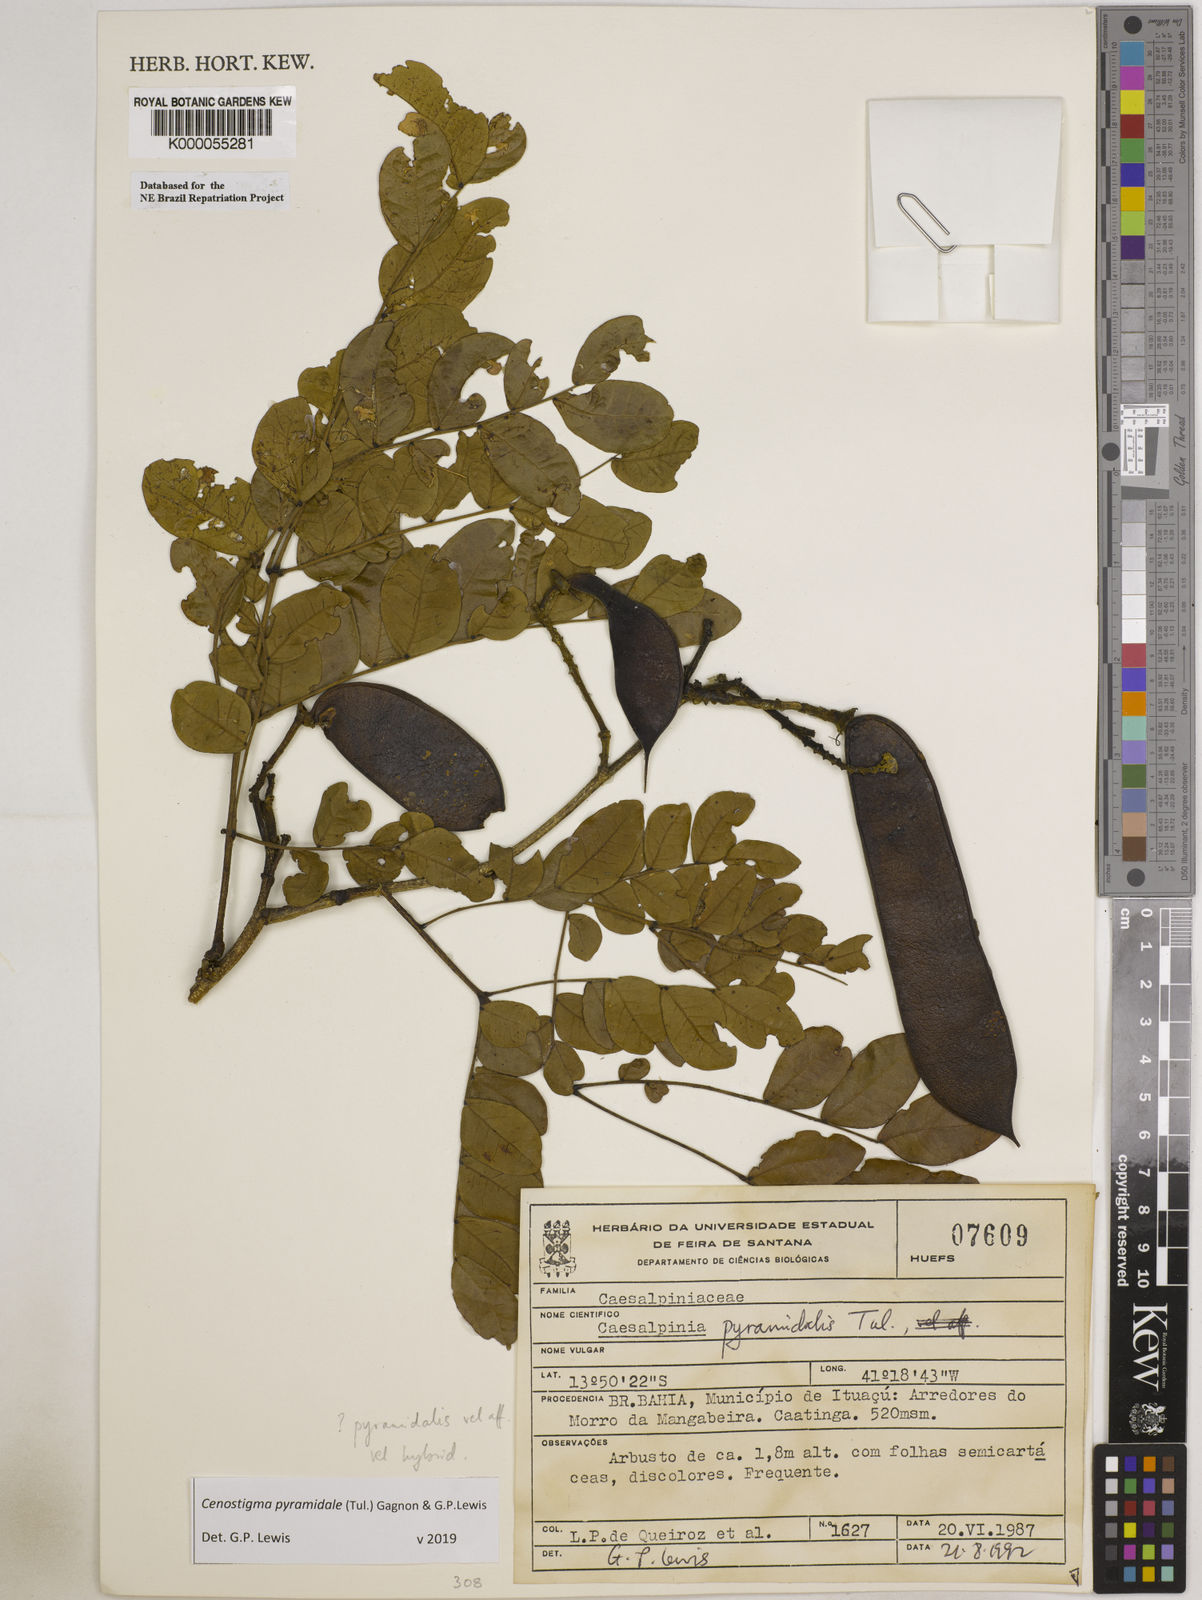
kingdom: Plantae
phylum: Tracheophyta
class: Magnoliopsida
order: Fabales
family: Fabaceae
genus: Cenostigma
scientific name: Cenostigma pyramidale
